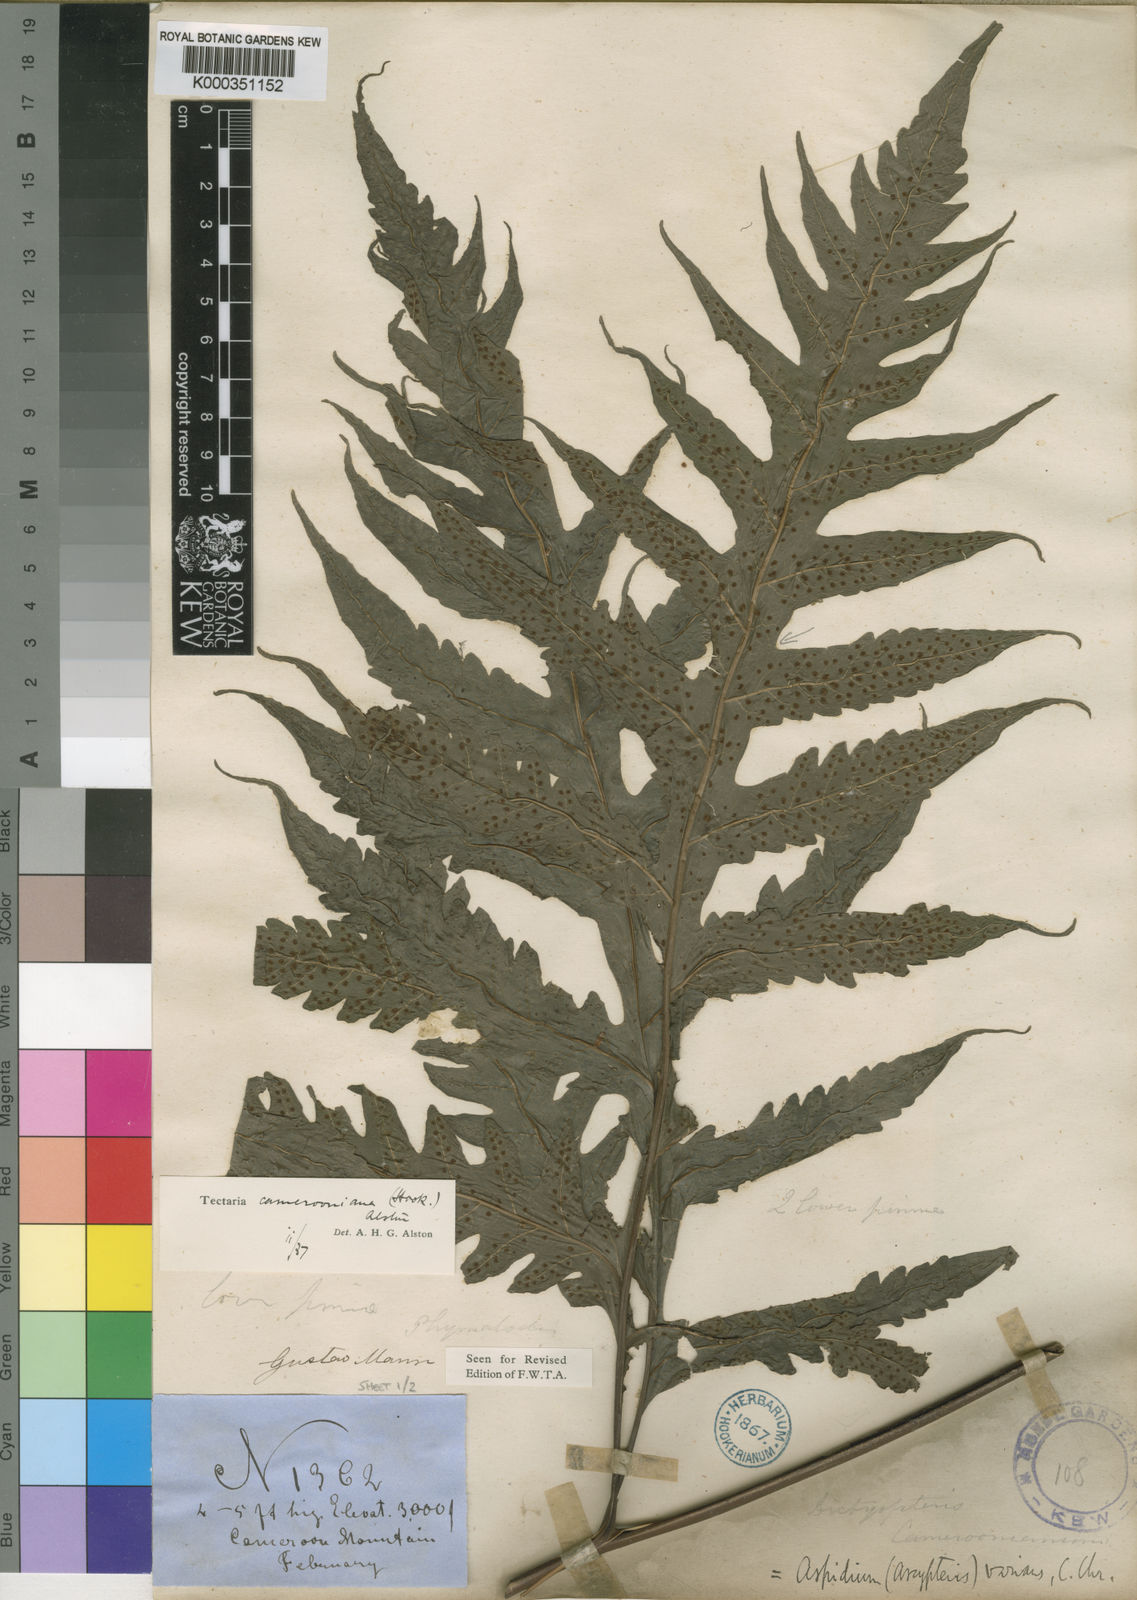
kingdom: Plantae
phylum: Tracheophyta
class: Polypodiopsida
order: Polypodiales
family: Tectariaceae
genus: Tectaria
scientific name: Tectaria camerooniana
